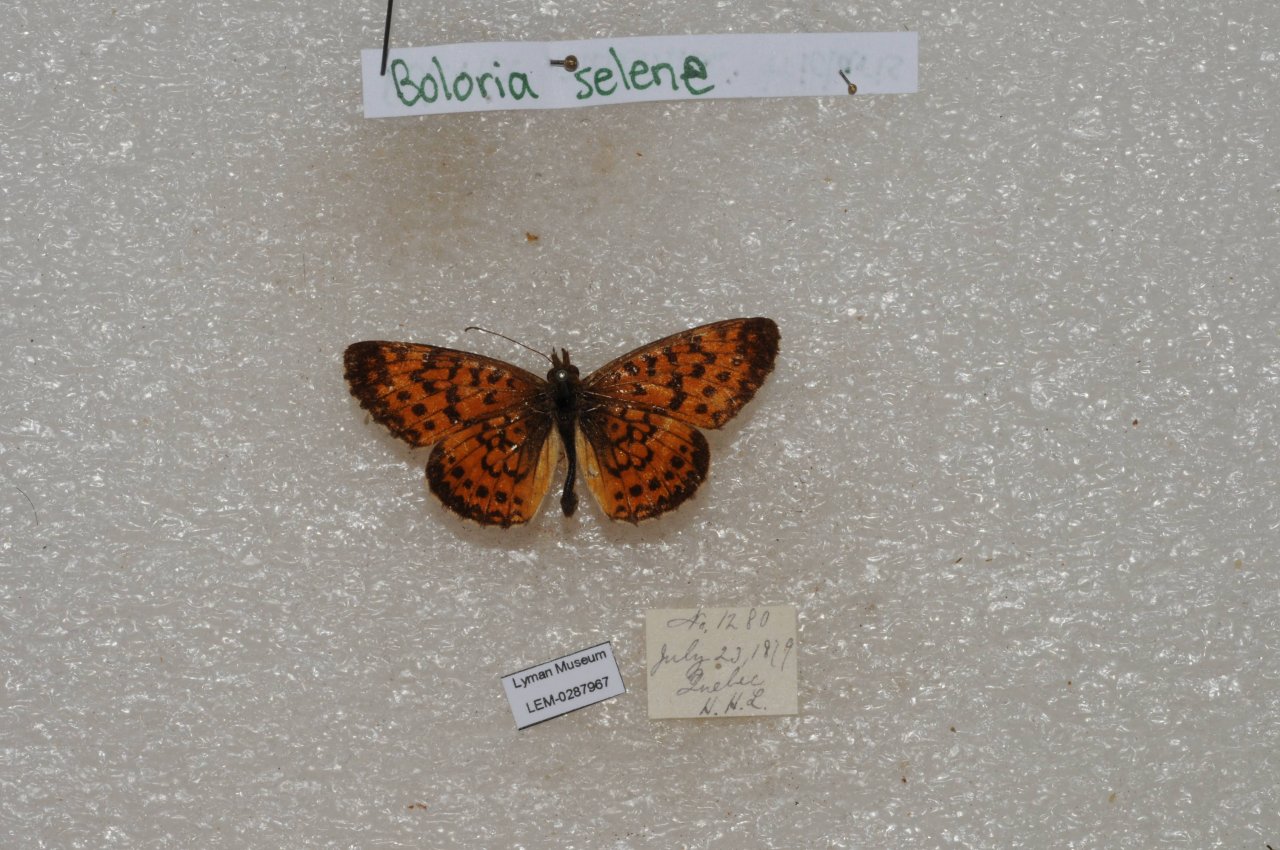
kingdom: Animalia
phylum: Arthropoda
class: Insecta
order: Lepidoptera
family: Nymphalidae
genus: Boloria
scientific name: Boloria selene
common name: Silver-bordered Fritillary
